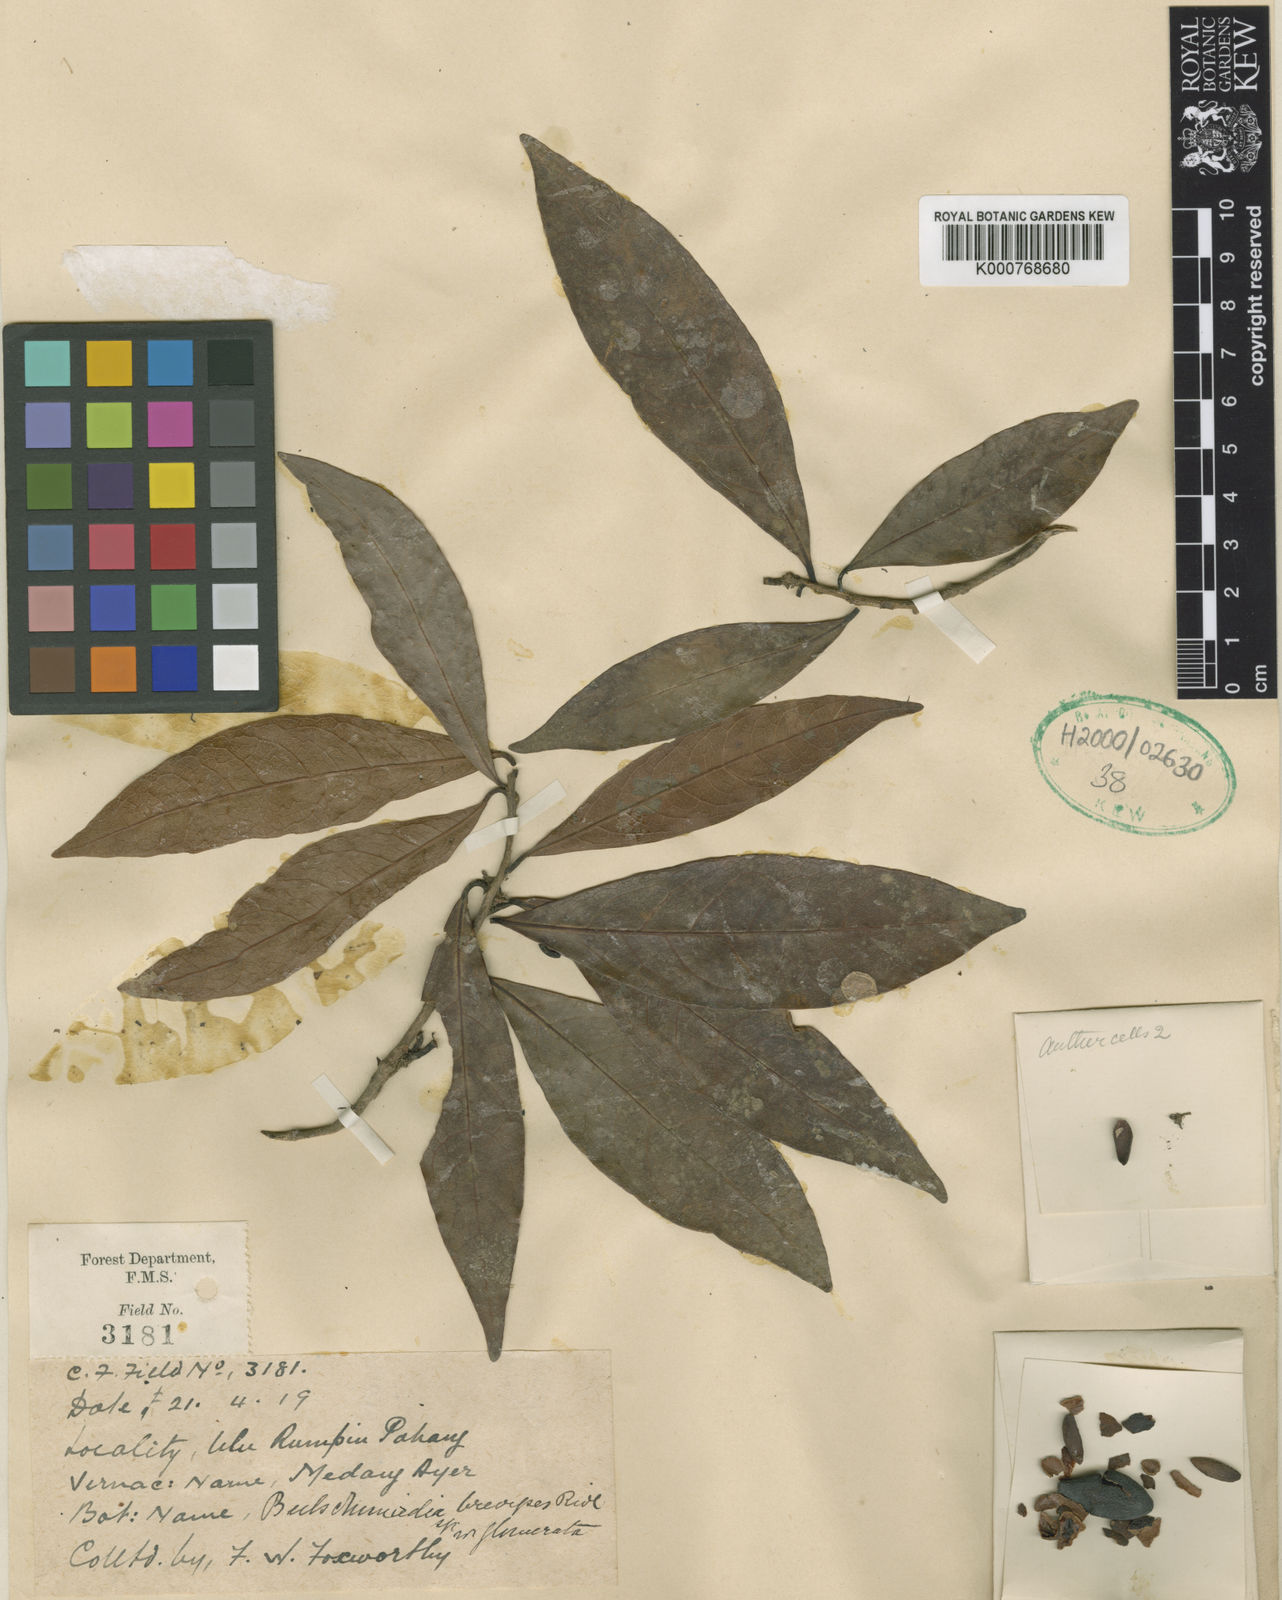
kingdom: Plantae
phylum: Tracheophyta
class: Magnoliopsida
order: Laurales
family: Lauraceae
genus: Beilschmiedia
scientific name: Beilschmiedia penangiana
